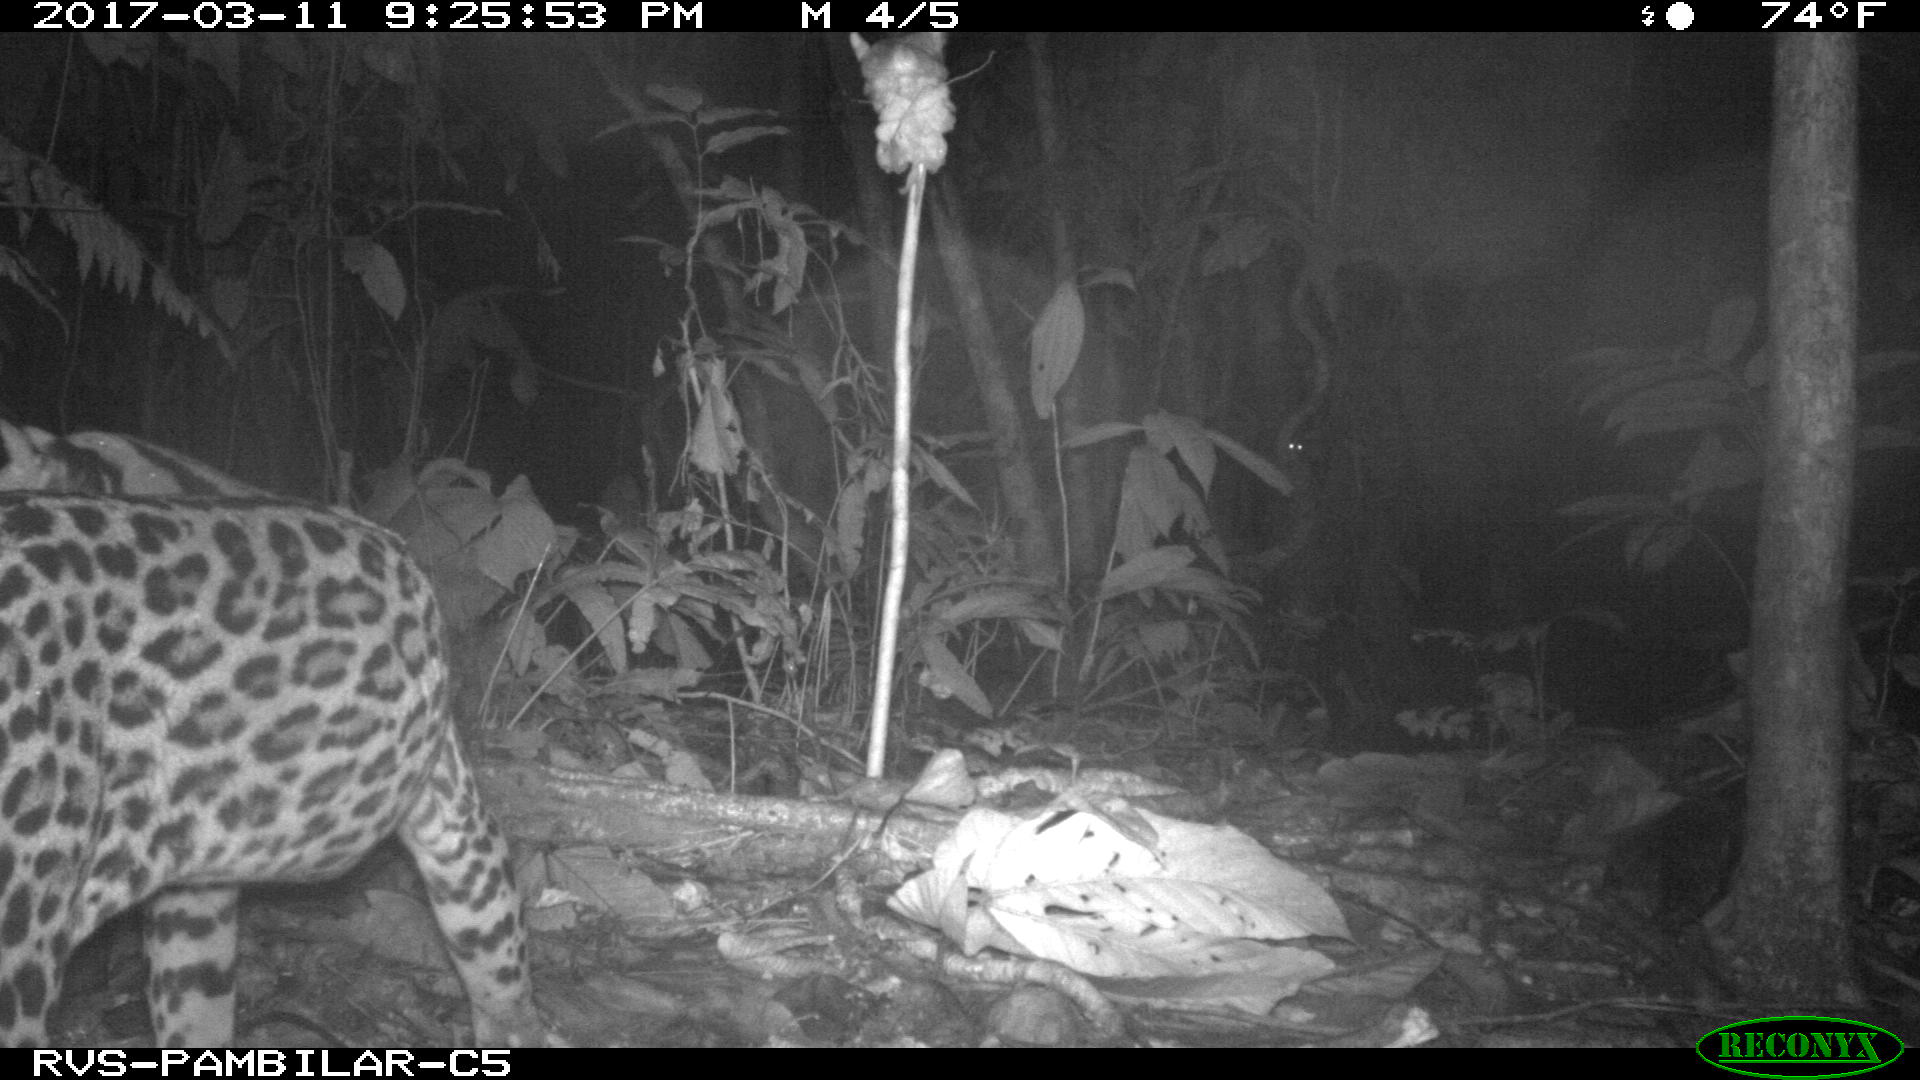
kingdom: Animalia
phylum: Chordata
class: Mammalia
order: Carnivora
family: Felidae
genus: Leopardus
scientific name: Leopardus pardalis
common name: Ocelot
